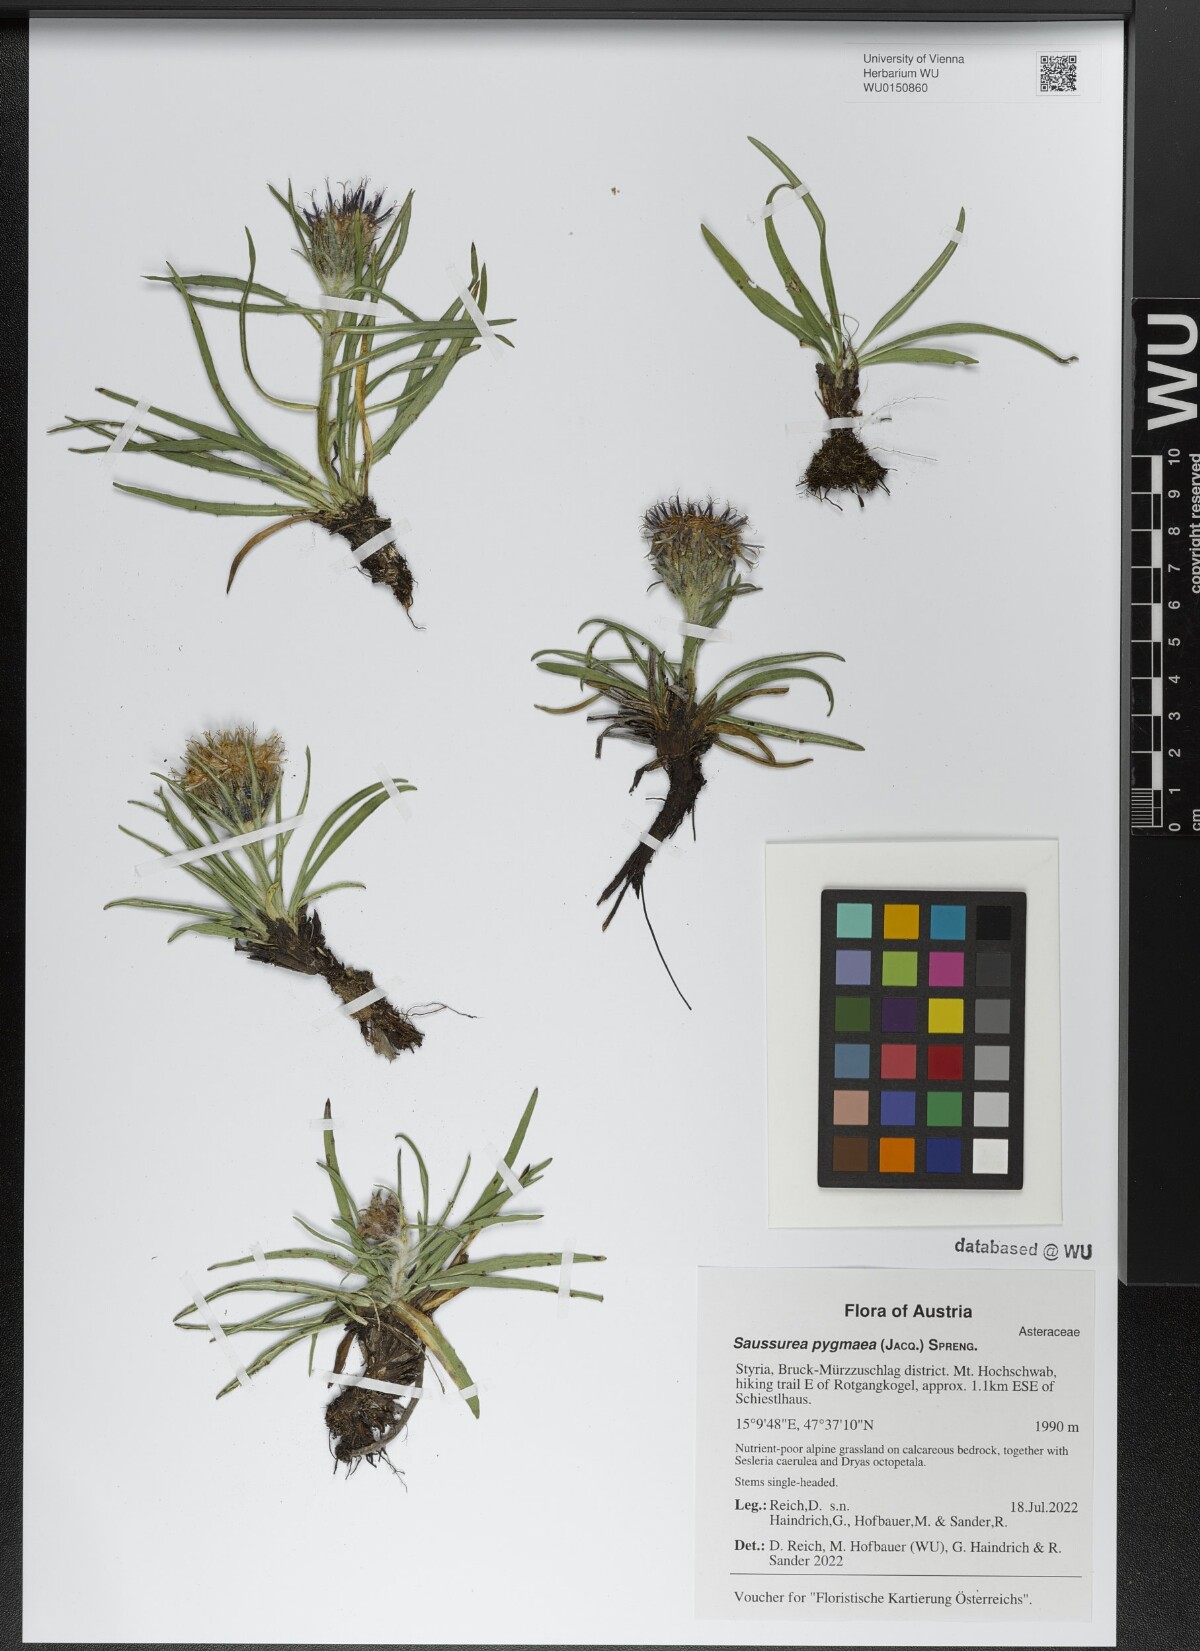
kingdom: Plantae
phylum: Tracheophyta
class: Magnoliopsida
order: Asterales
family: Asteraceae
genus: Saussurea
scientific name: Saussurea pygmaea
